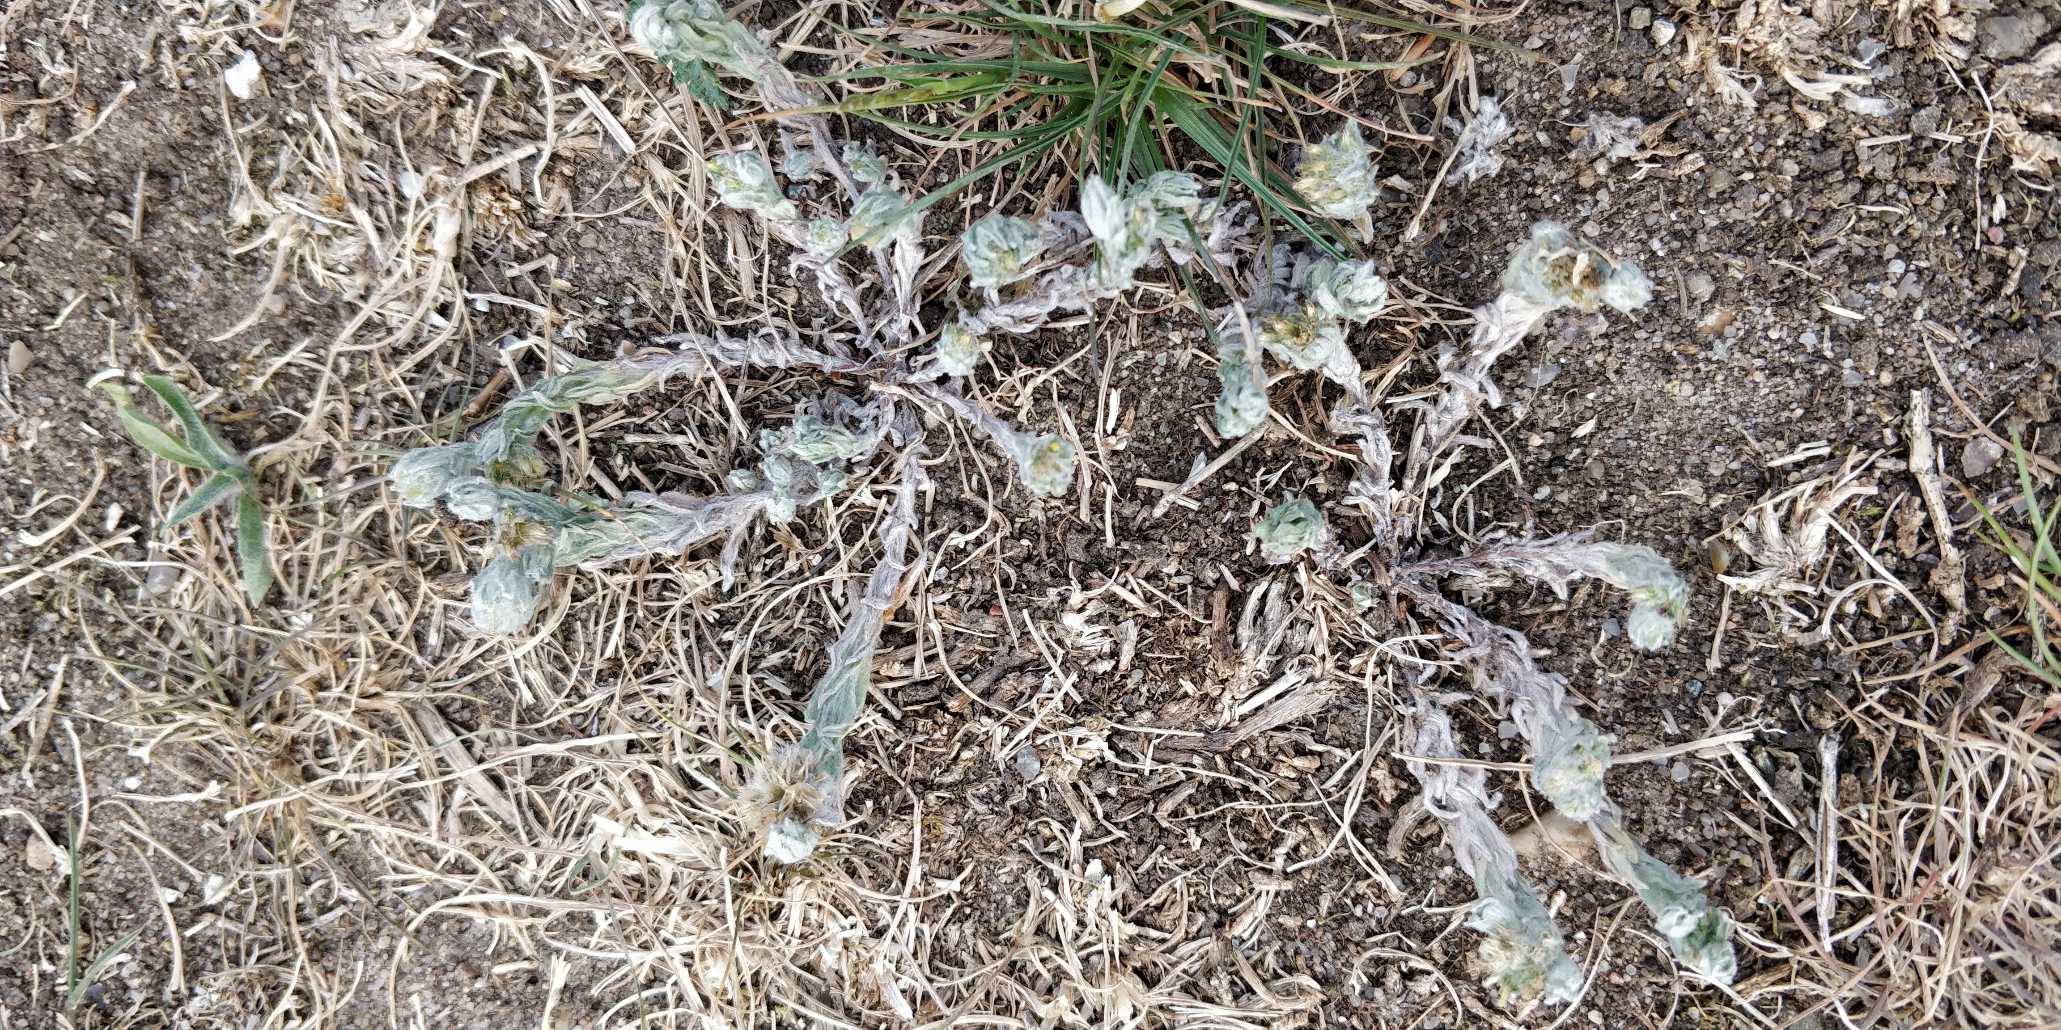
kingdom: Plantae
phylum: Tracheophyta
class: Magnoliopsida
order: Asterales
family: Asteraceae
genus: Filago
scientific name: Filago germanica
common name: Kugle-museurt
